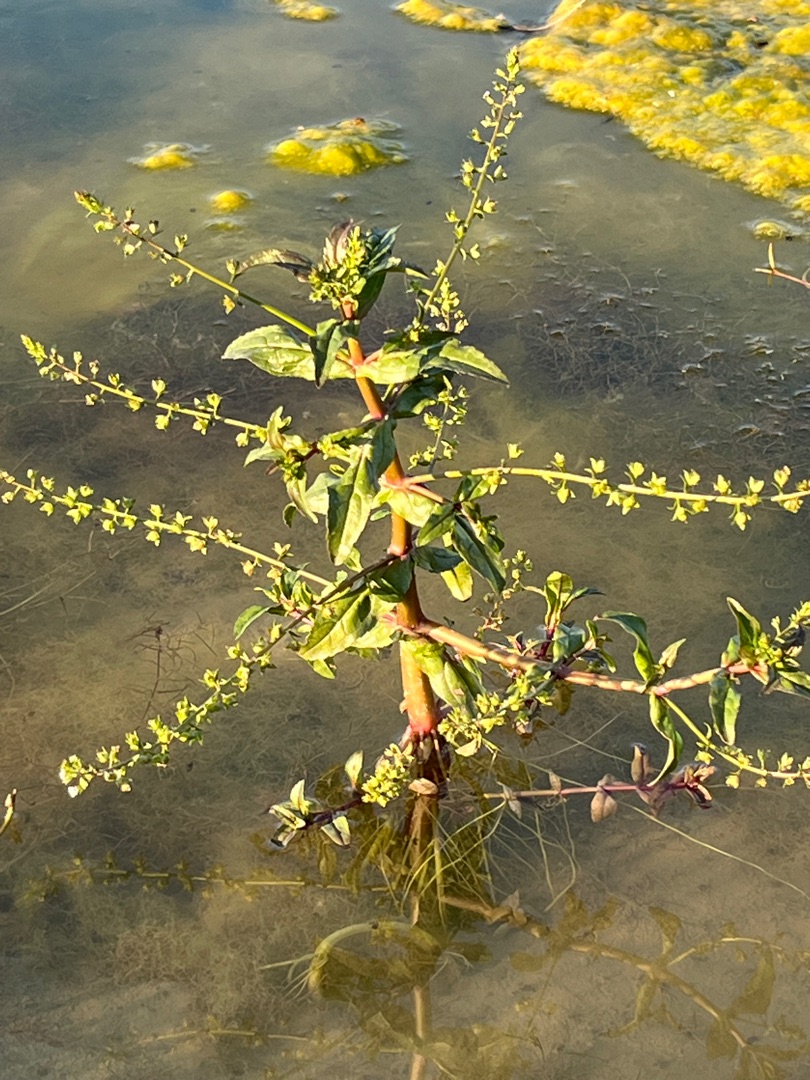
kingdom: Plantae
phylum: Tracheophyta
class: Magnoliopsida
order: Lamiales
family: Plantaginaceae
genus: Veronica
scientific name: Veronica catenata
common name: Vand-ærenpris
